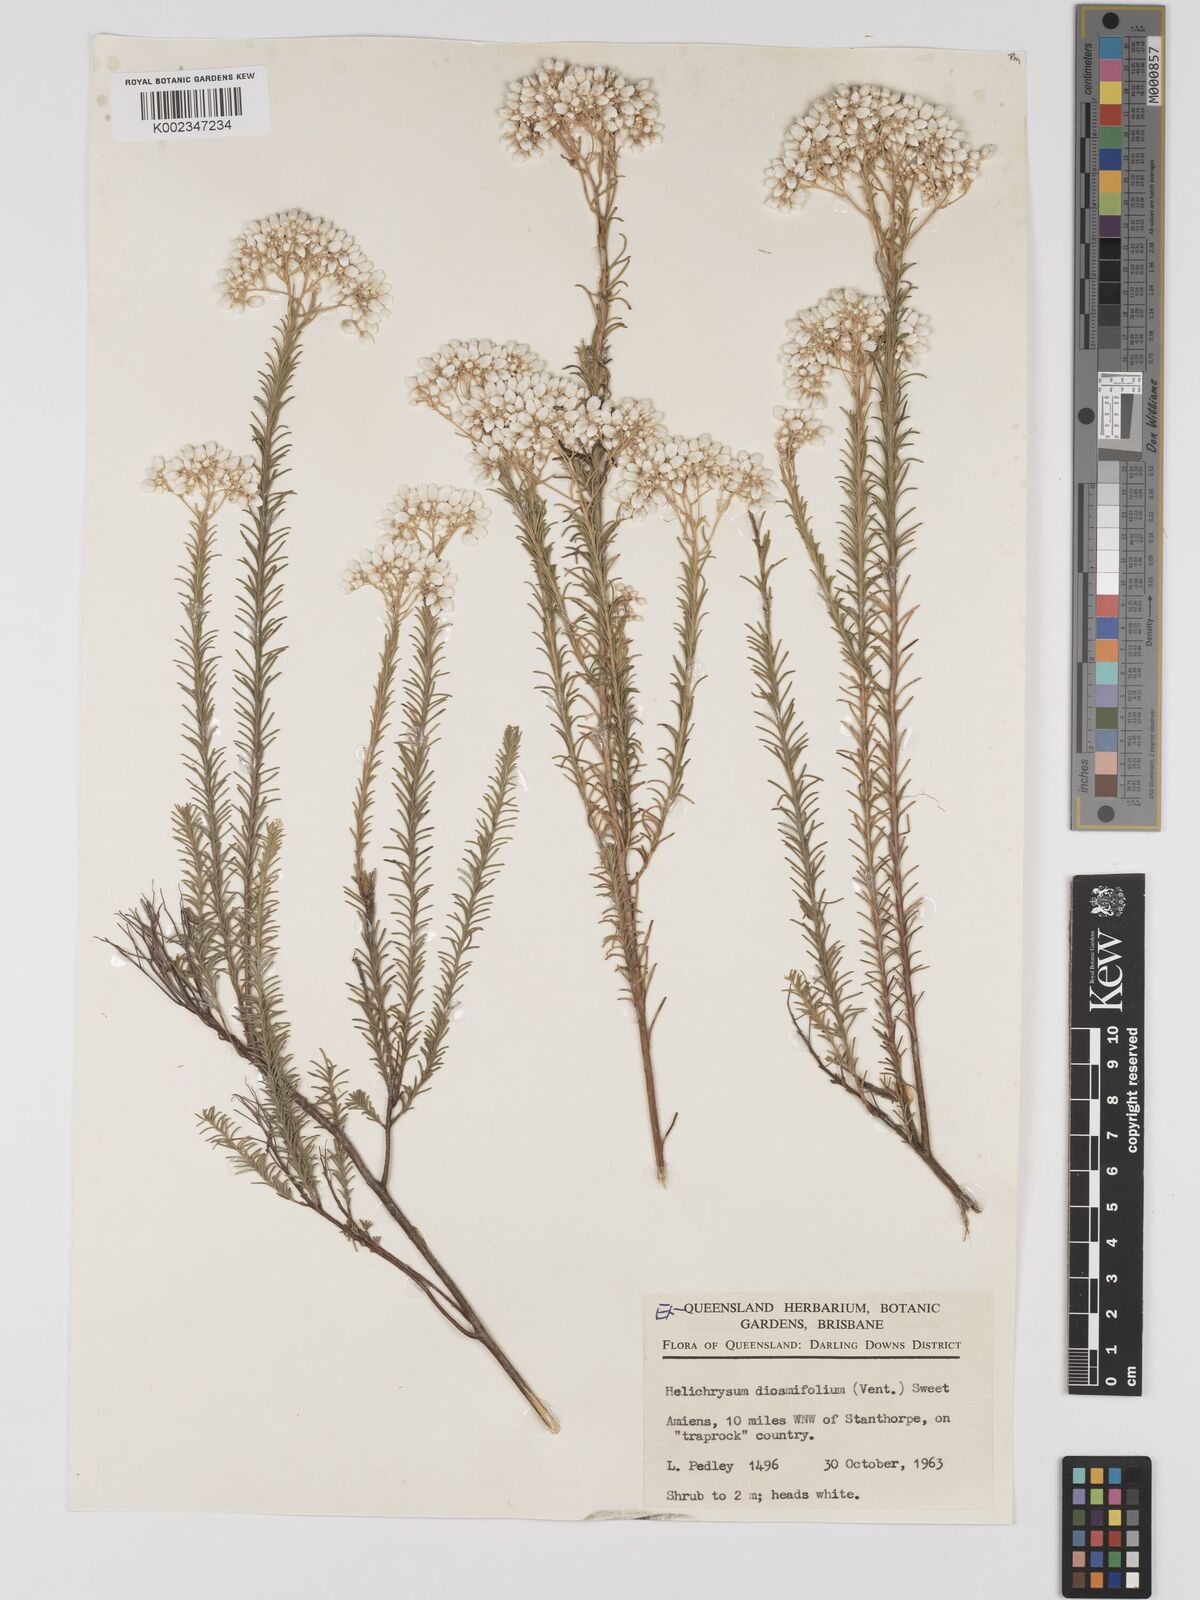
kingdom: Plantae
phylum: Tracheophyta
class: Magnoliopsida
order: Asterales
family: Asteraceae
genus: Ozothamnus
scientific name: Ozothamnus diosmifolius
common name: White-dogwood
